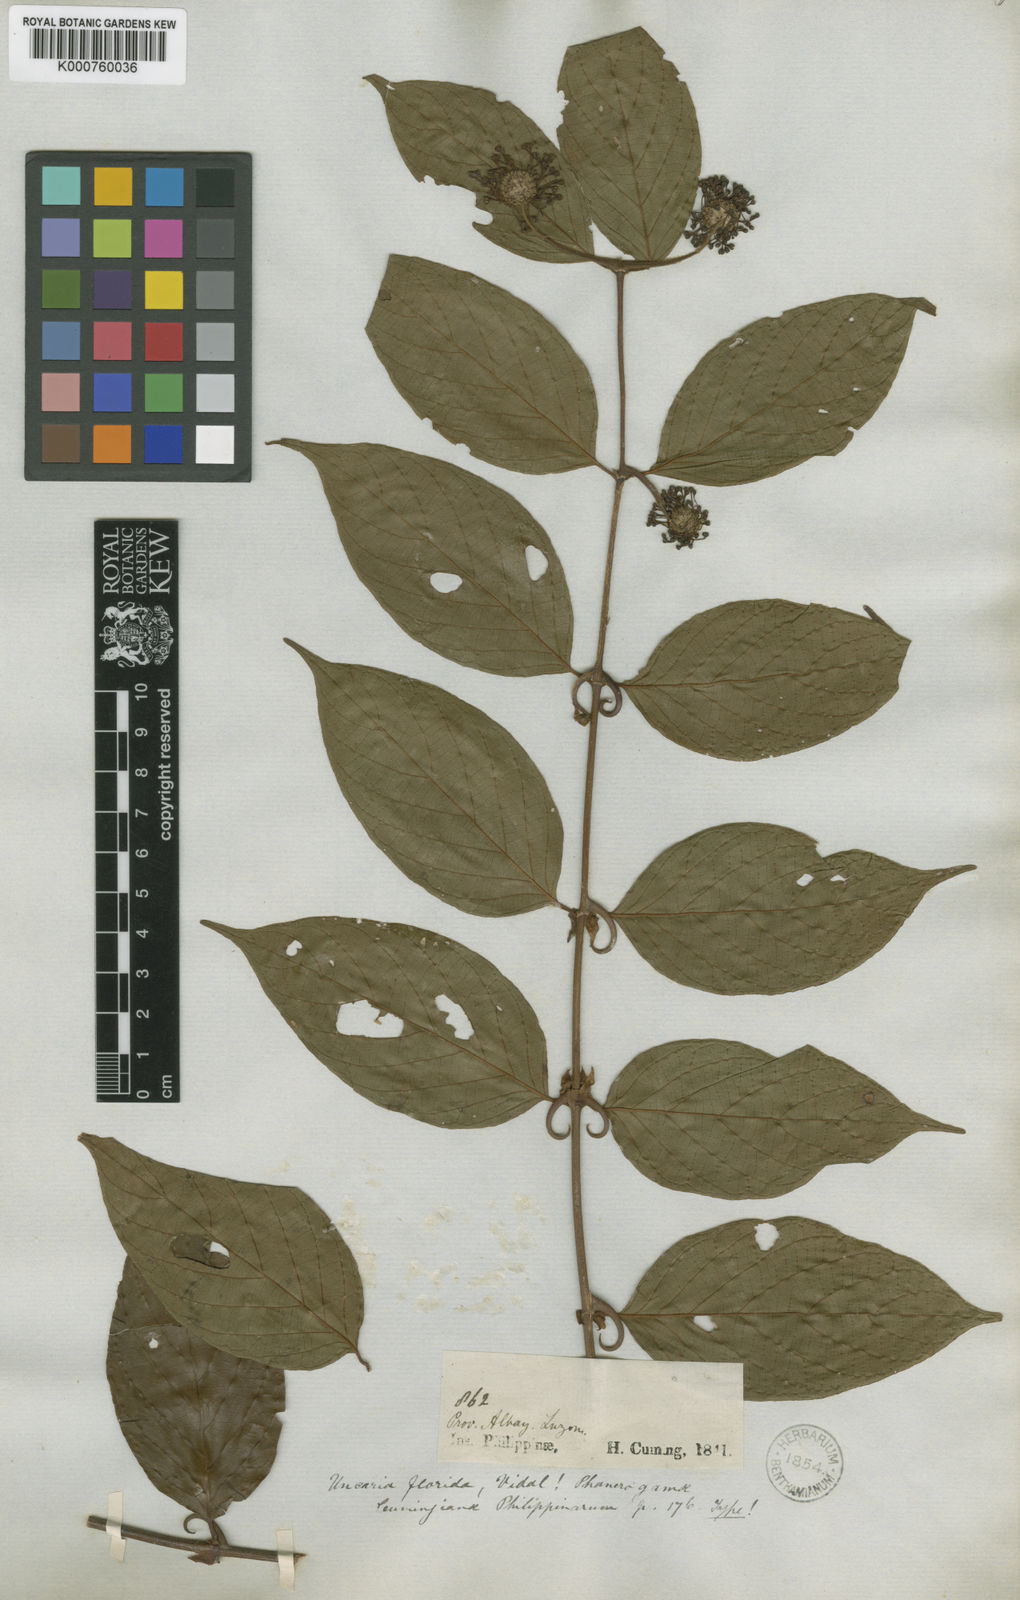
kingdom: Plantae
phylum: Tracheophyta
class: Magnoliopsida
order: Gentianales
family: Rubiaceae
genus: Uncaria
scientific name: Uncaria lanosa
